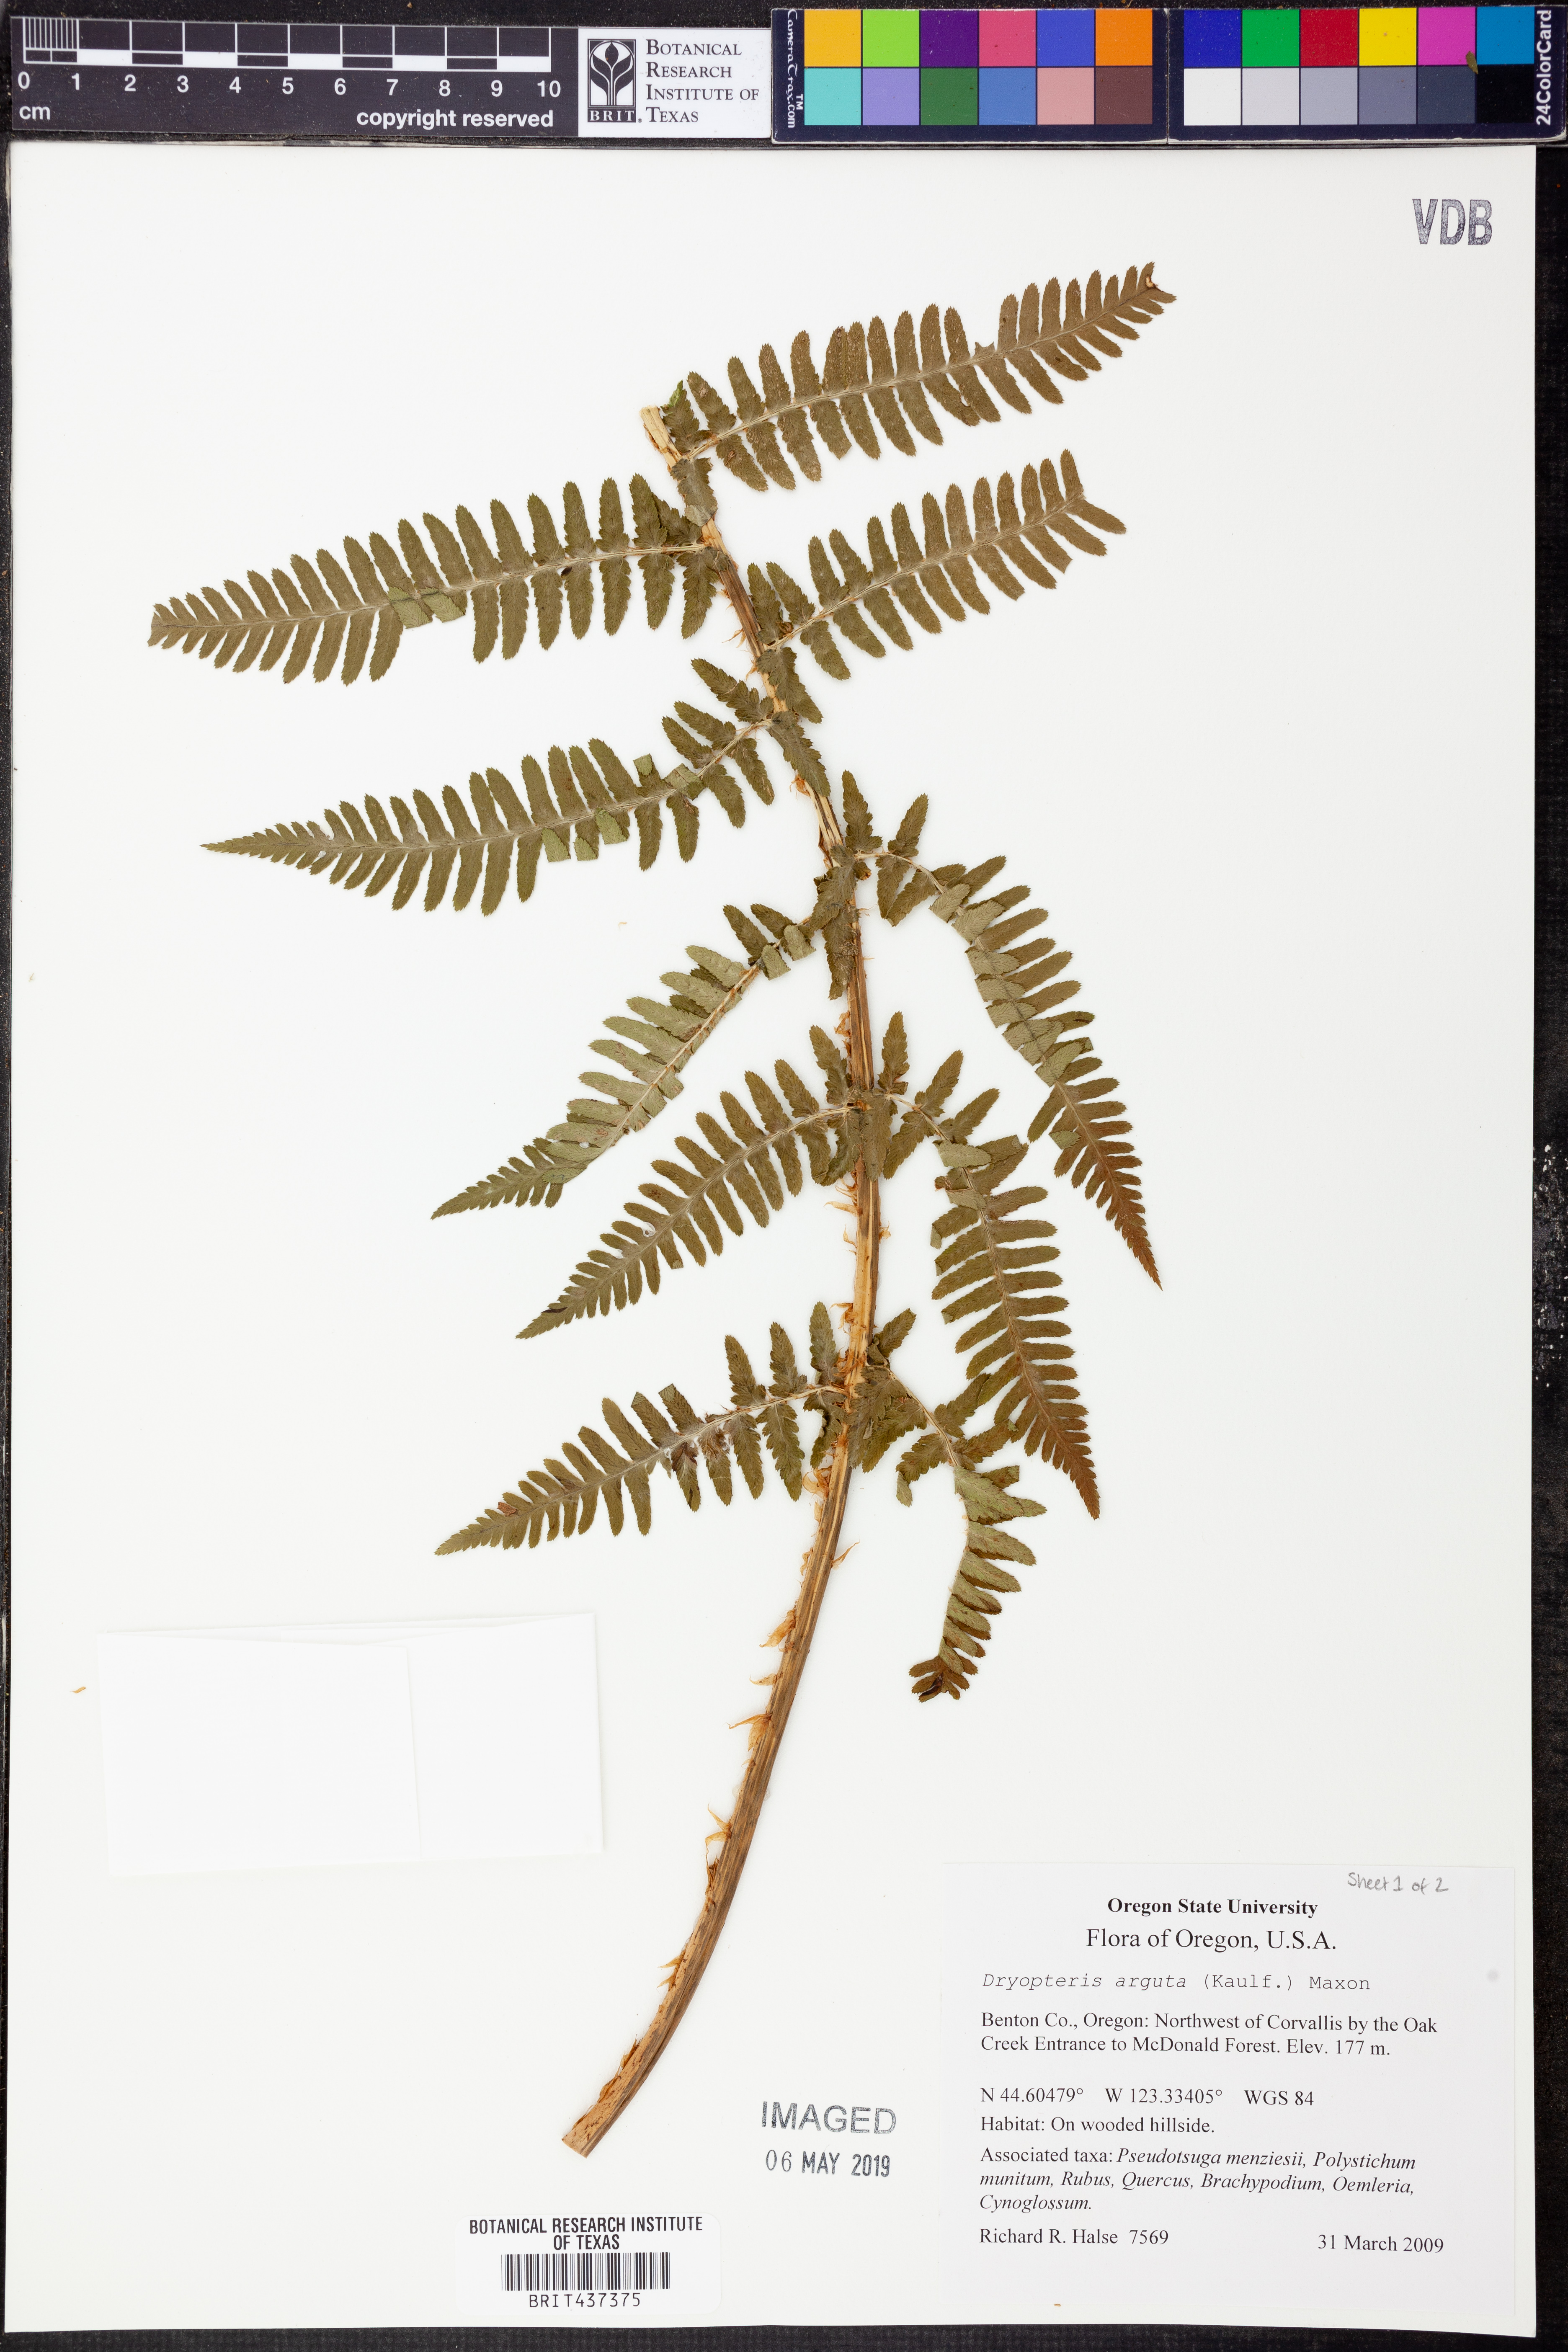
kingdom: Plantae
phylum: Tracheophyta
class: Polypodiopsida
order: Polypodiales
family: Dryopteridaceae
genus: Dryopteris
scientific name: Dryopteris arguta
